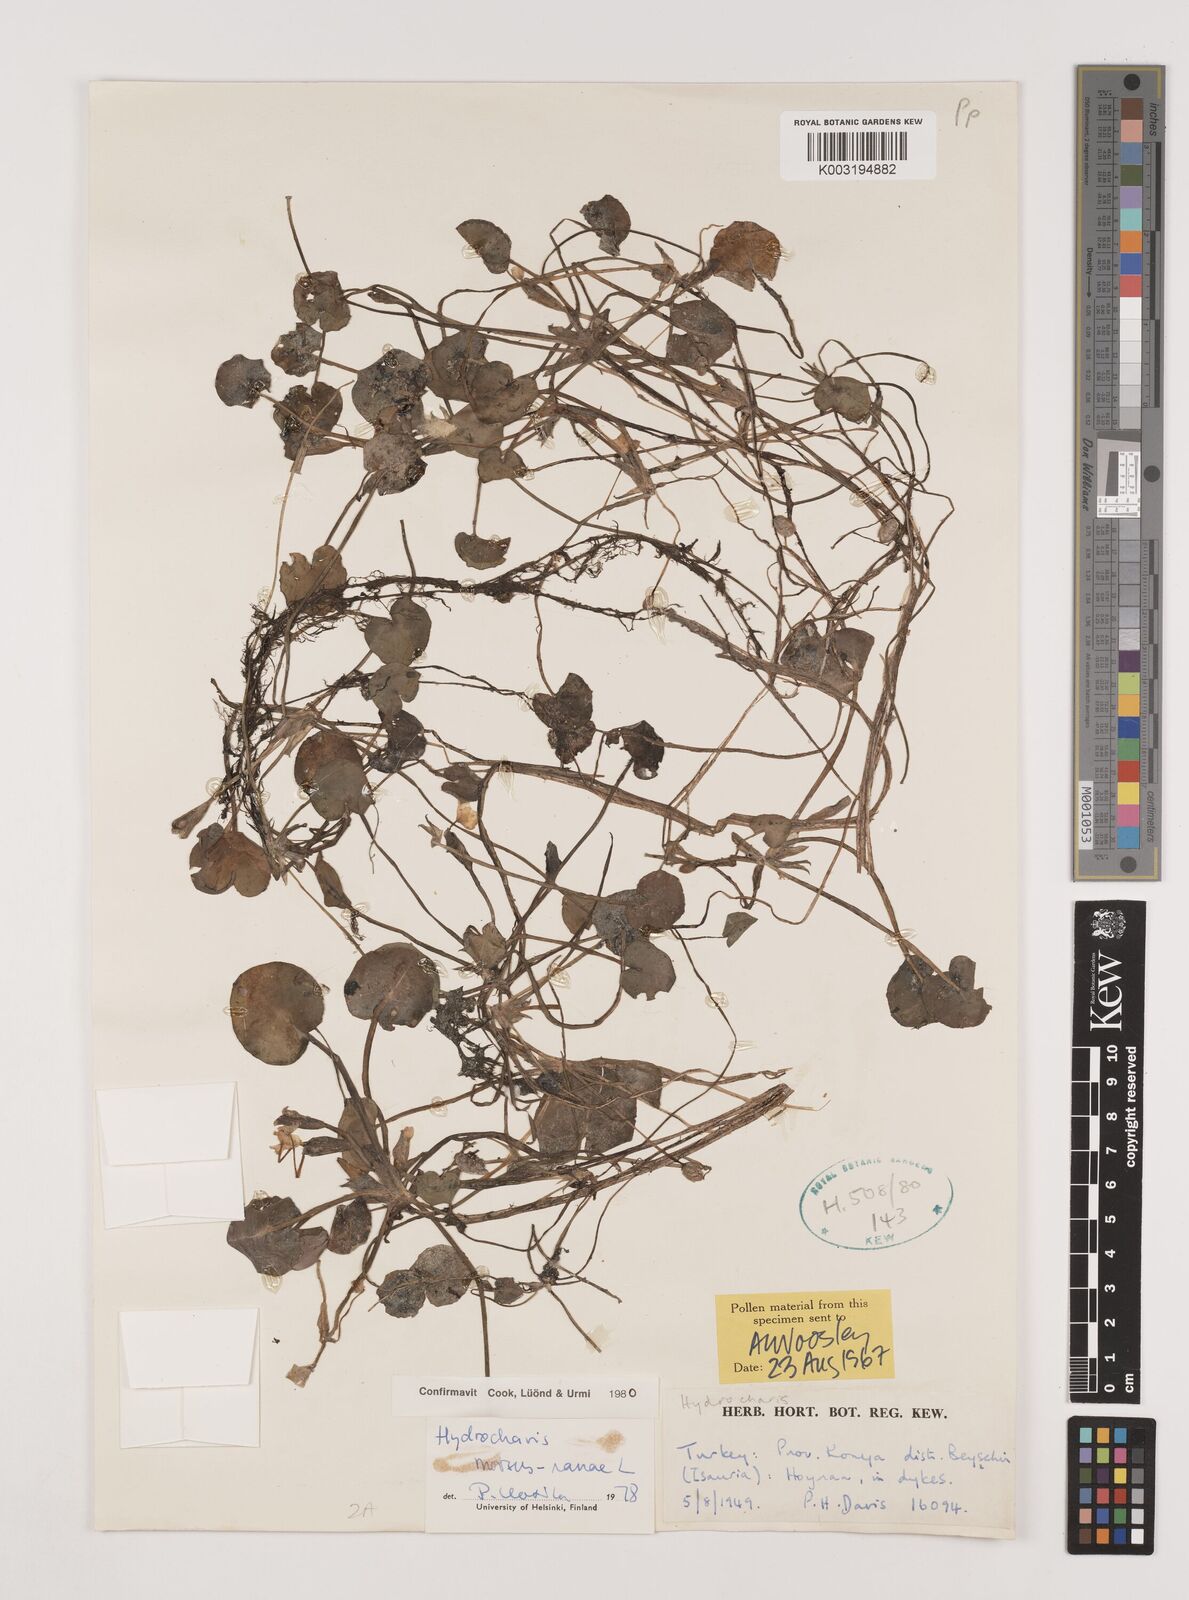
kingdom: Plantae
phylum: Tracheophyta
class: Liliopsida
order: Alismatales
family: Hydrocharitaceae
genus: Hydrocharis
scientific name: Hydrocharis morsus-ranae
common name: Frogbit
